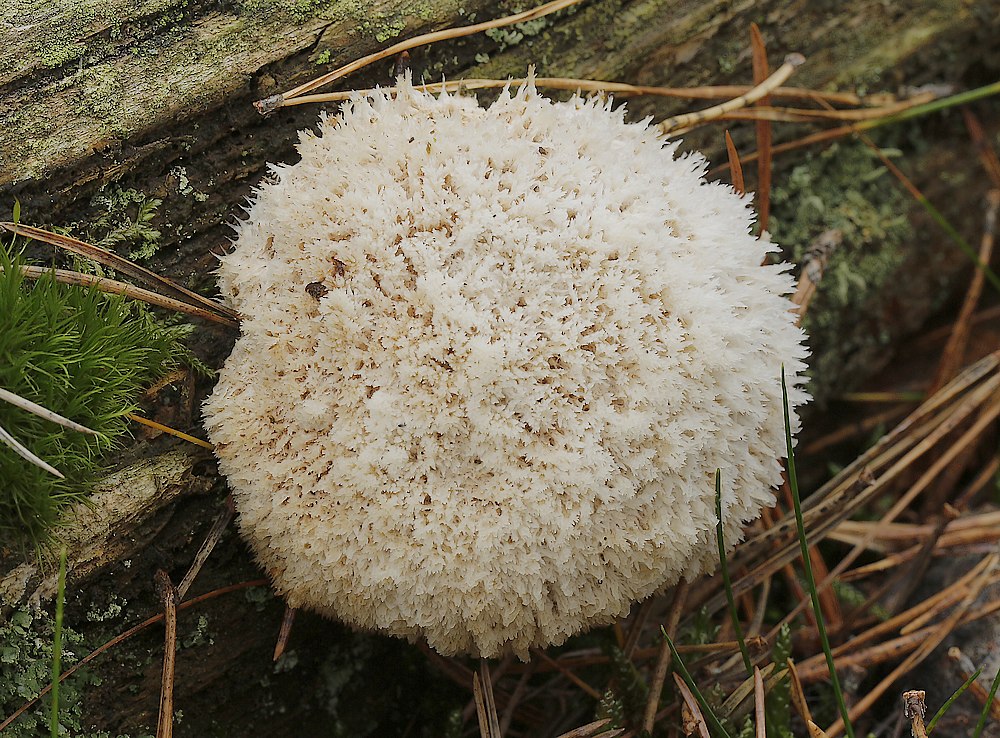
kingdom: Fungi
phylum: Basidiomycota
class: Agaricomycetes
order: Polyporales
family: Dacryobolaceae
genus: Postia
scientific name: Postia ptychogaster
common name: støvende kødporesvamp
